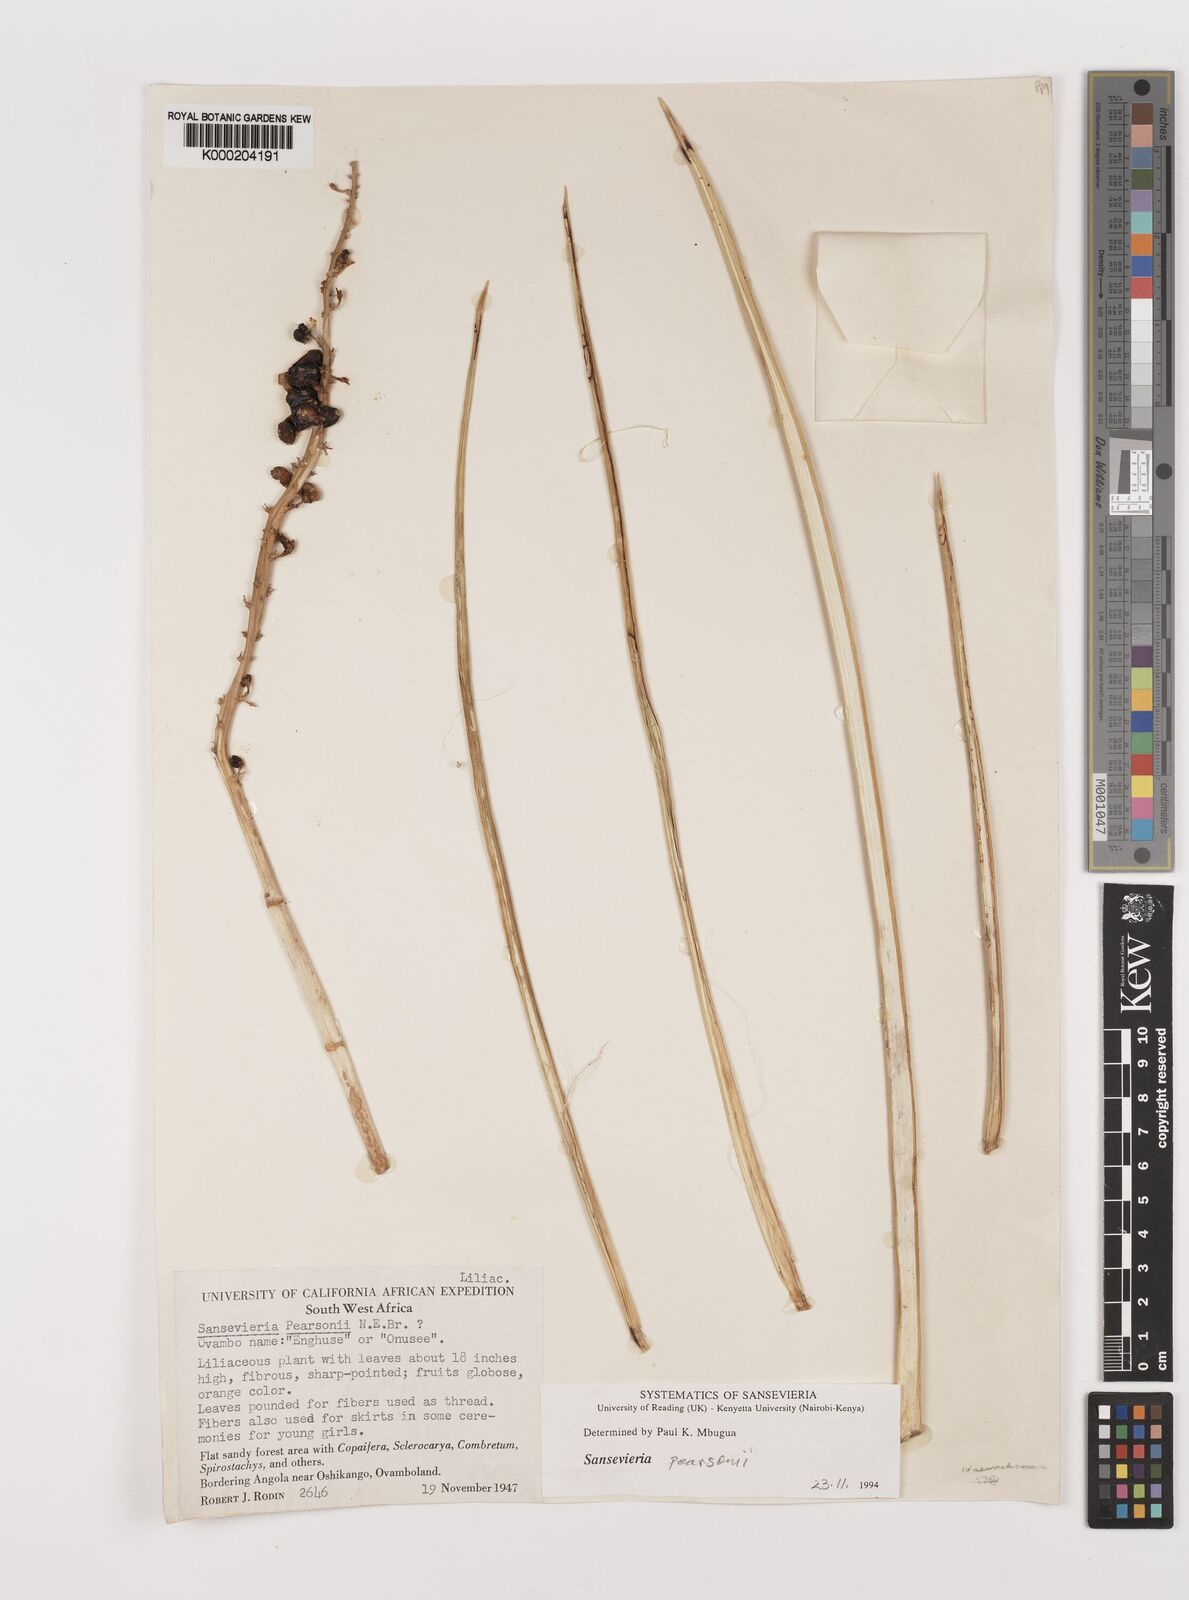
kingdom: Plantae
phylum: Tracheophyta
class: Liliopsida
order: Asparagales
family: Asparagaceae
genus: Dracaena
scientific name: Dracaena pearsonii
